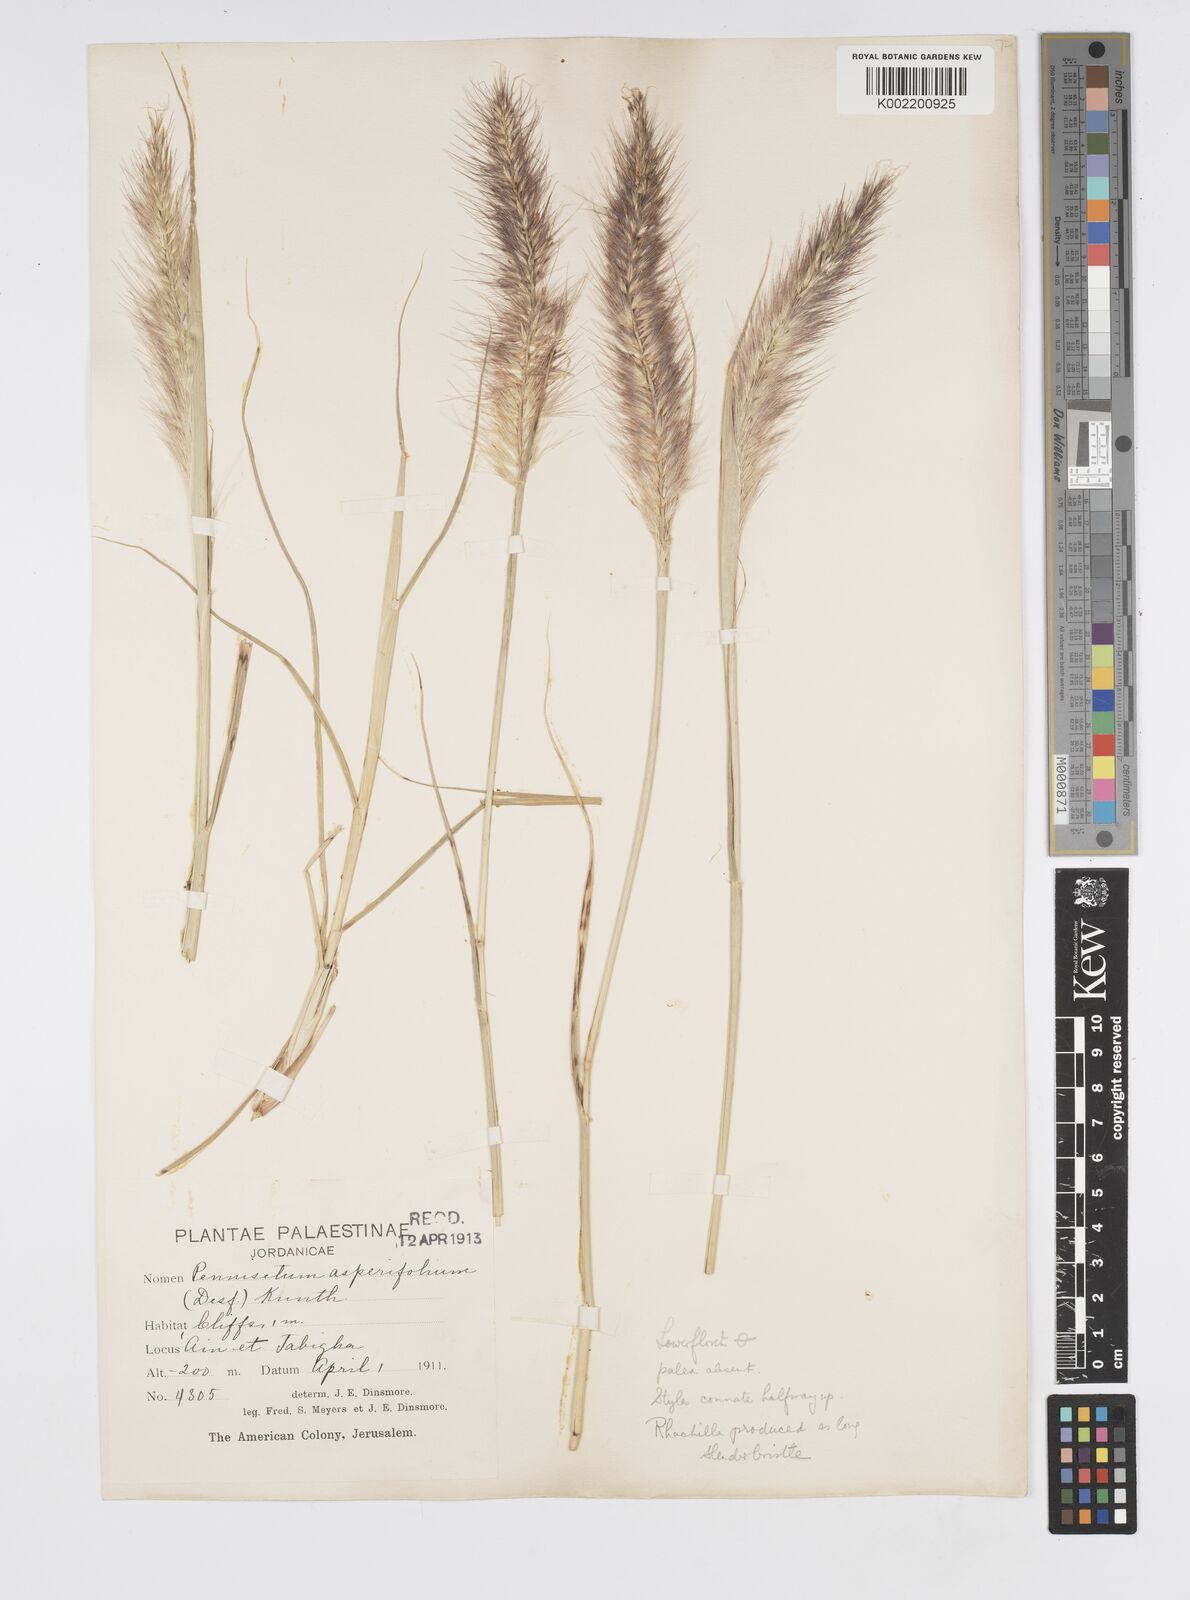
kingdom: Plantae
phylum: Tracheophyta
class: Liliopsida
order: Poales
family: Poaceae
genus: Cenchrus
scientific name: Cenchrus setaceus
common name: Crimson fountaingrass
